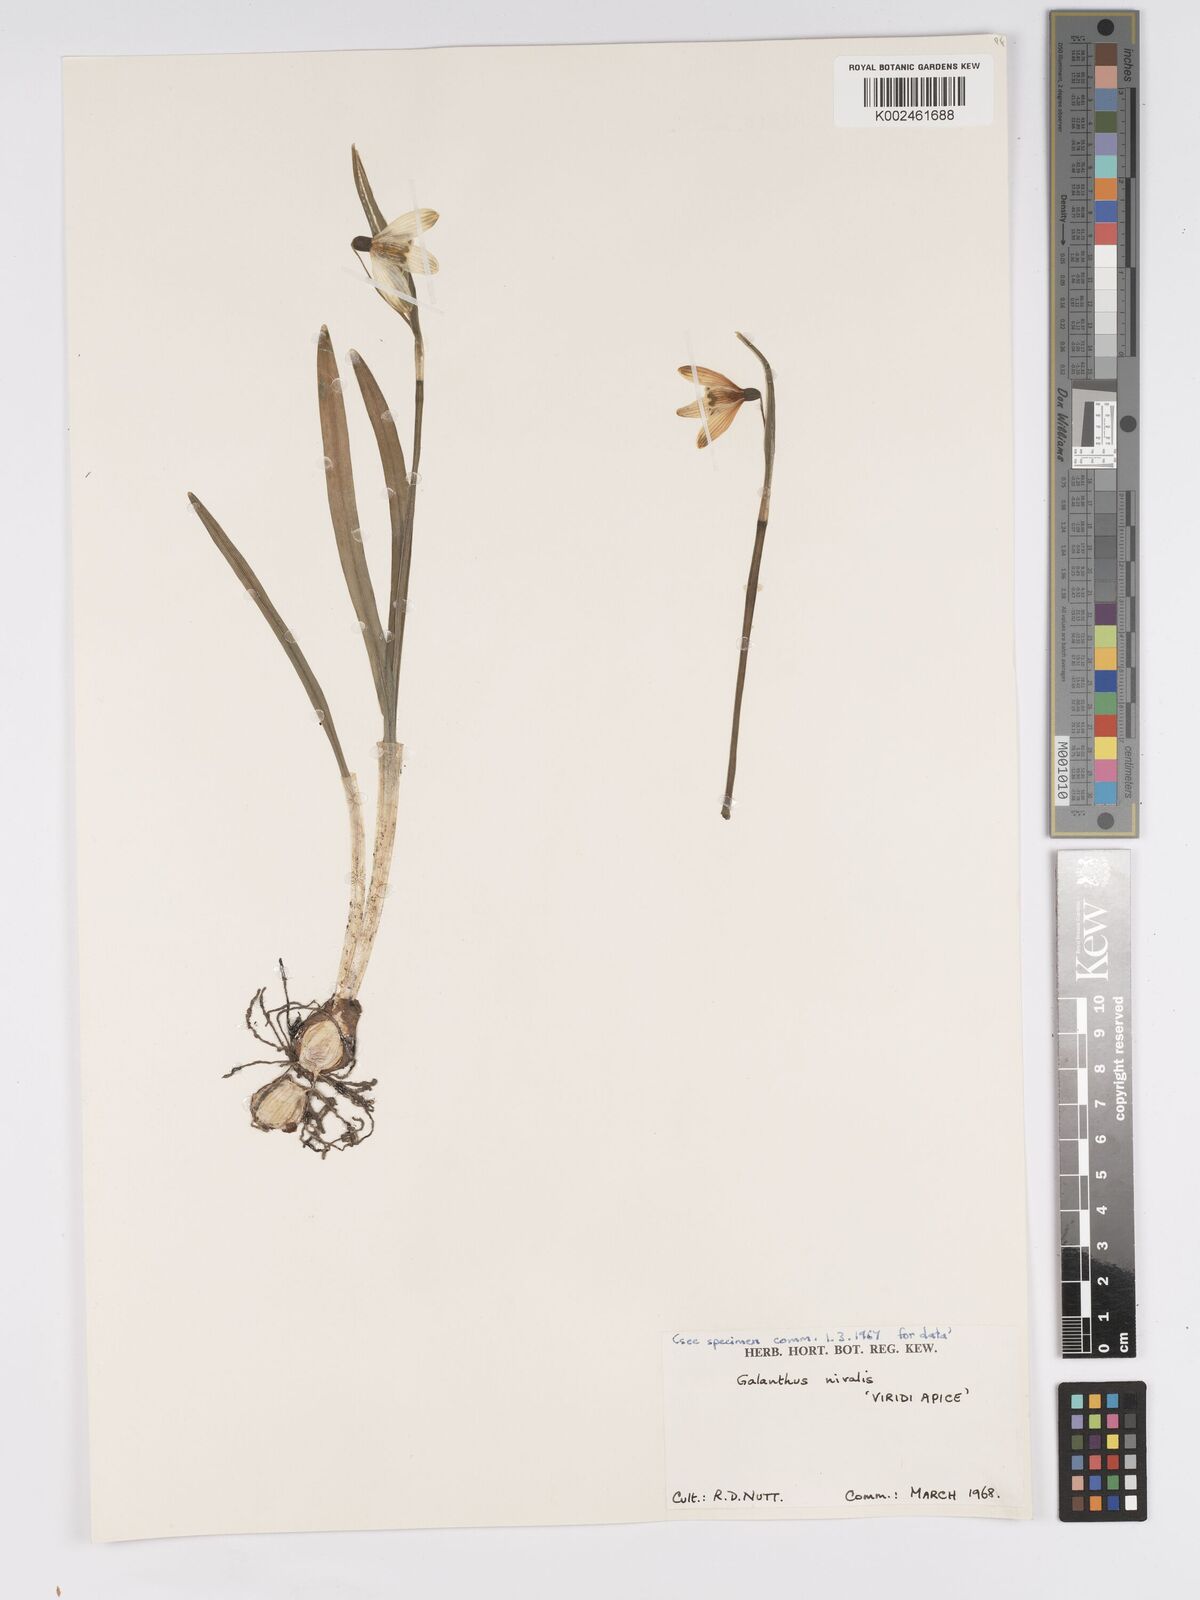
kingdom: Plantae
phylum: Tracheophyta
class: Liliopsida
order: Asparagales
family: Amaryllidaceae
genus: Galanthus
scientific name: Galanthus
